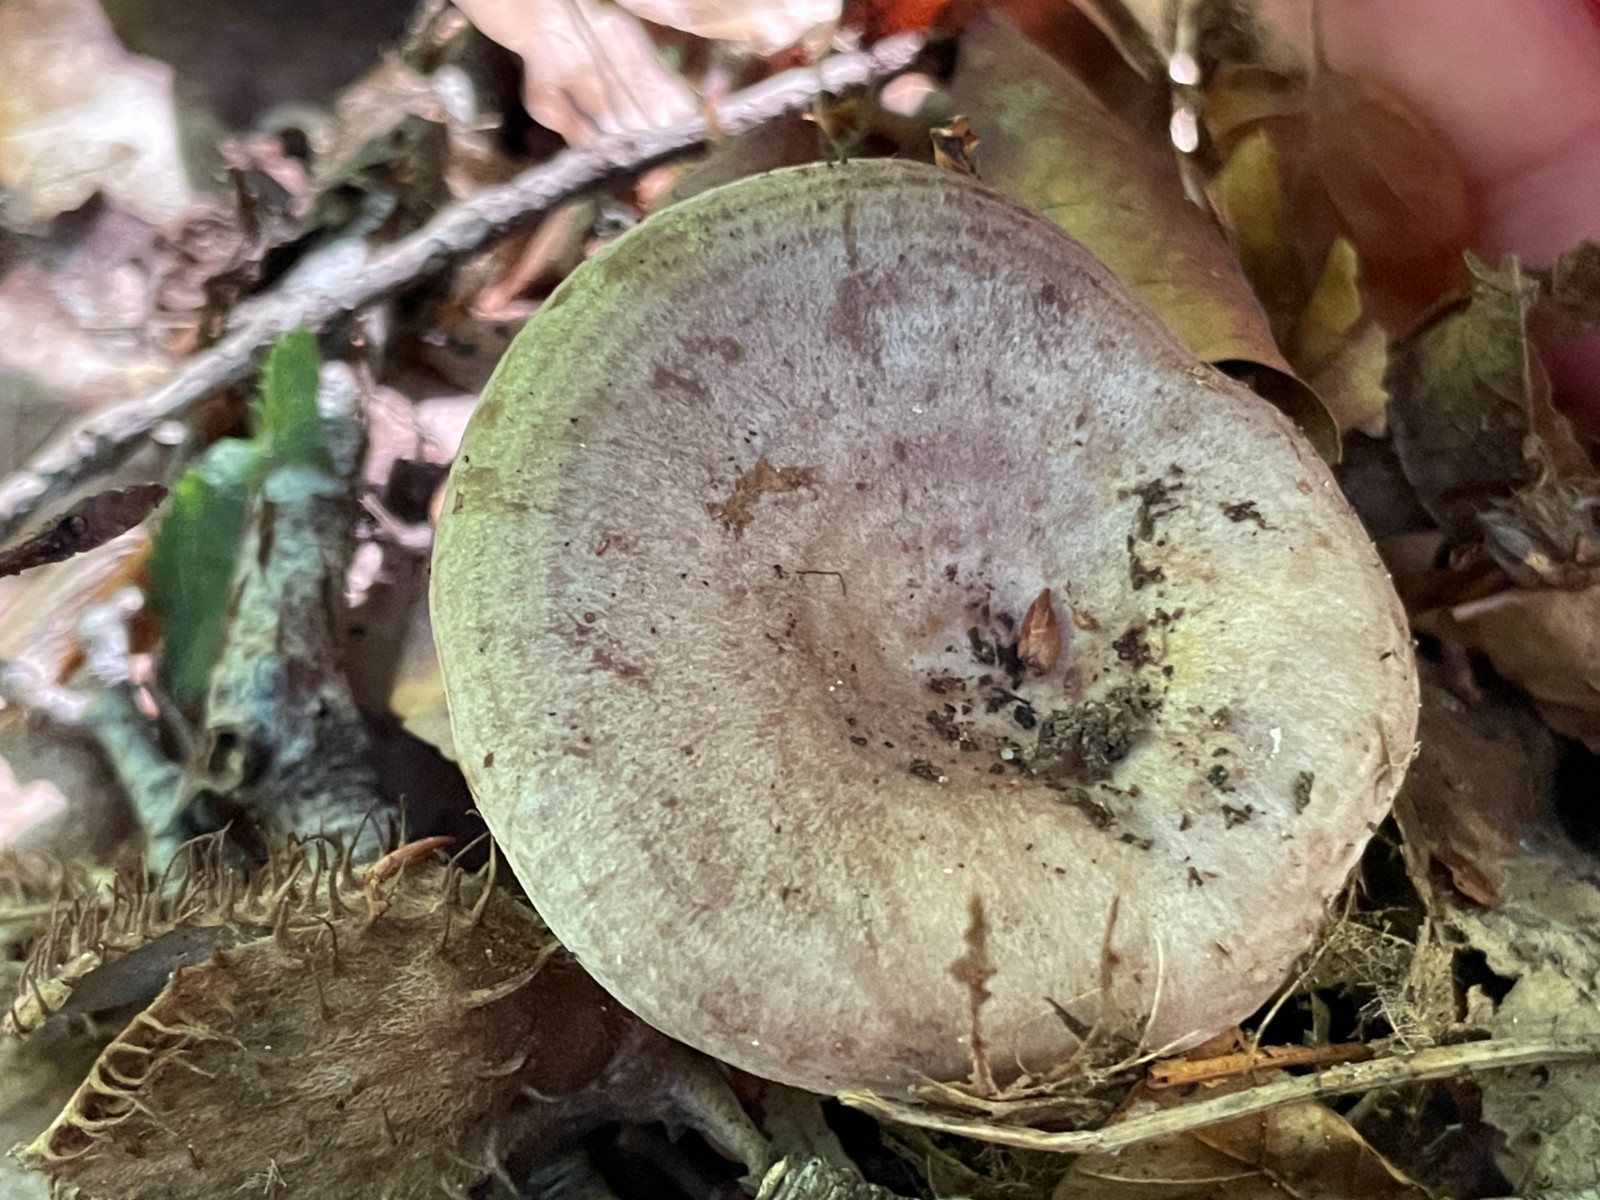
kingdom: Fungi
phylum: Basidiomycota
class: Agaricomycetes
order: Russulales
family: Russulaceae
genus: Lactarius
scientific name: Lactarius blennius
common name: dråbeplettet mælkehat
